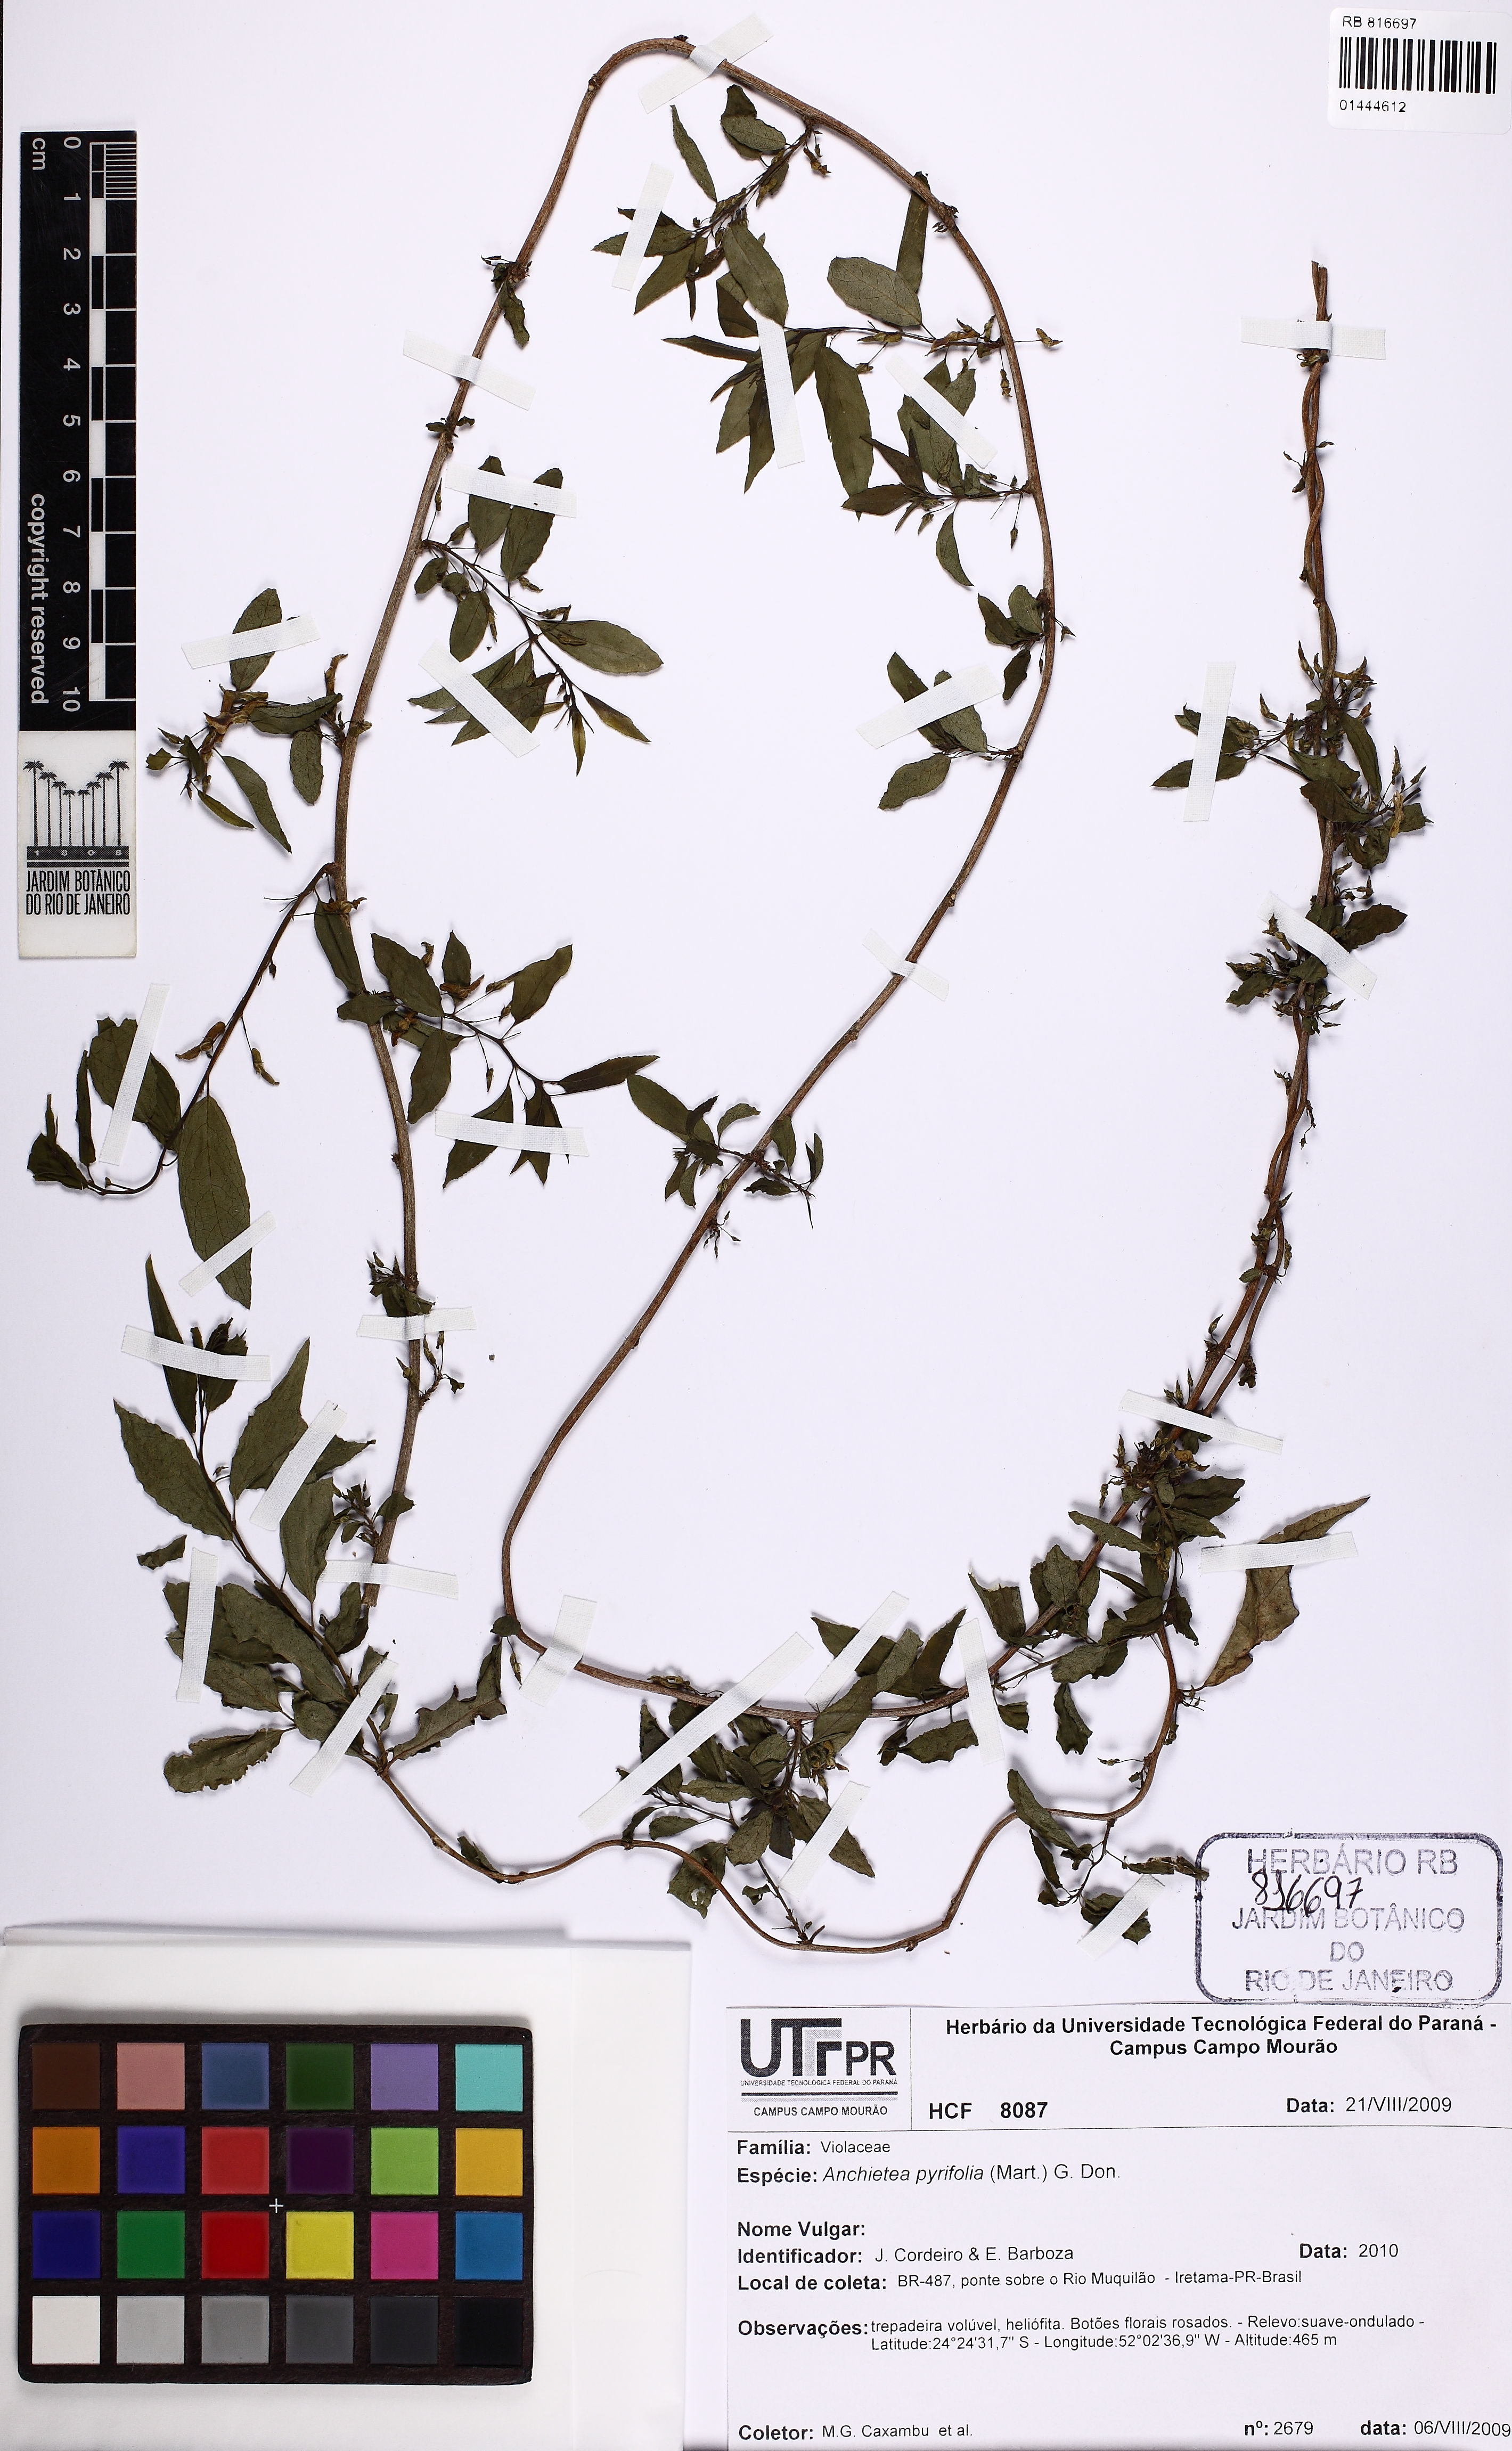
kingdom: Plantae
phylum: Tracheophyta
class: Magnoliopsida
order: Malpighiales
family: Violaceae
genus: Anchietea
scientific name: Anchietea pyrifolia
